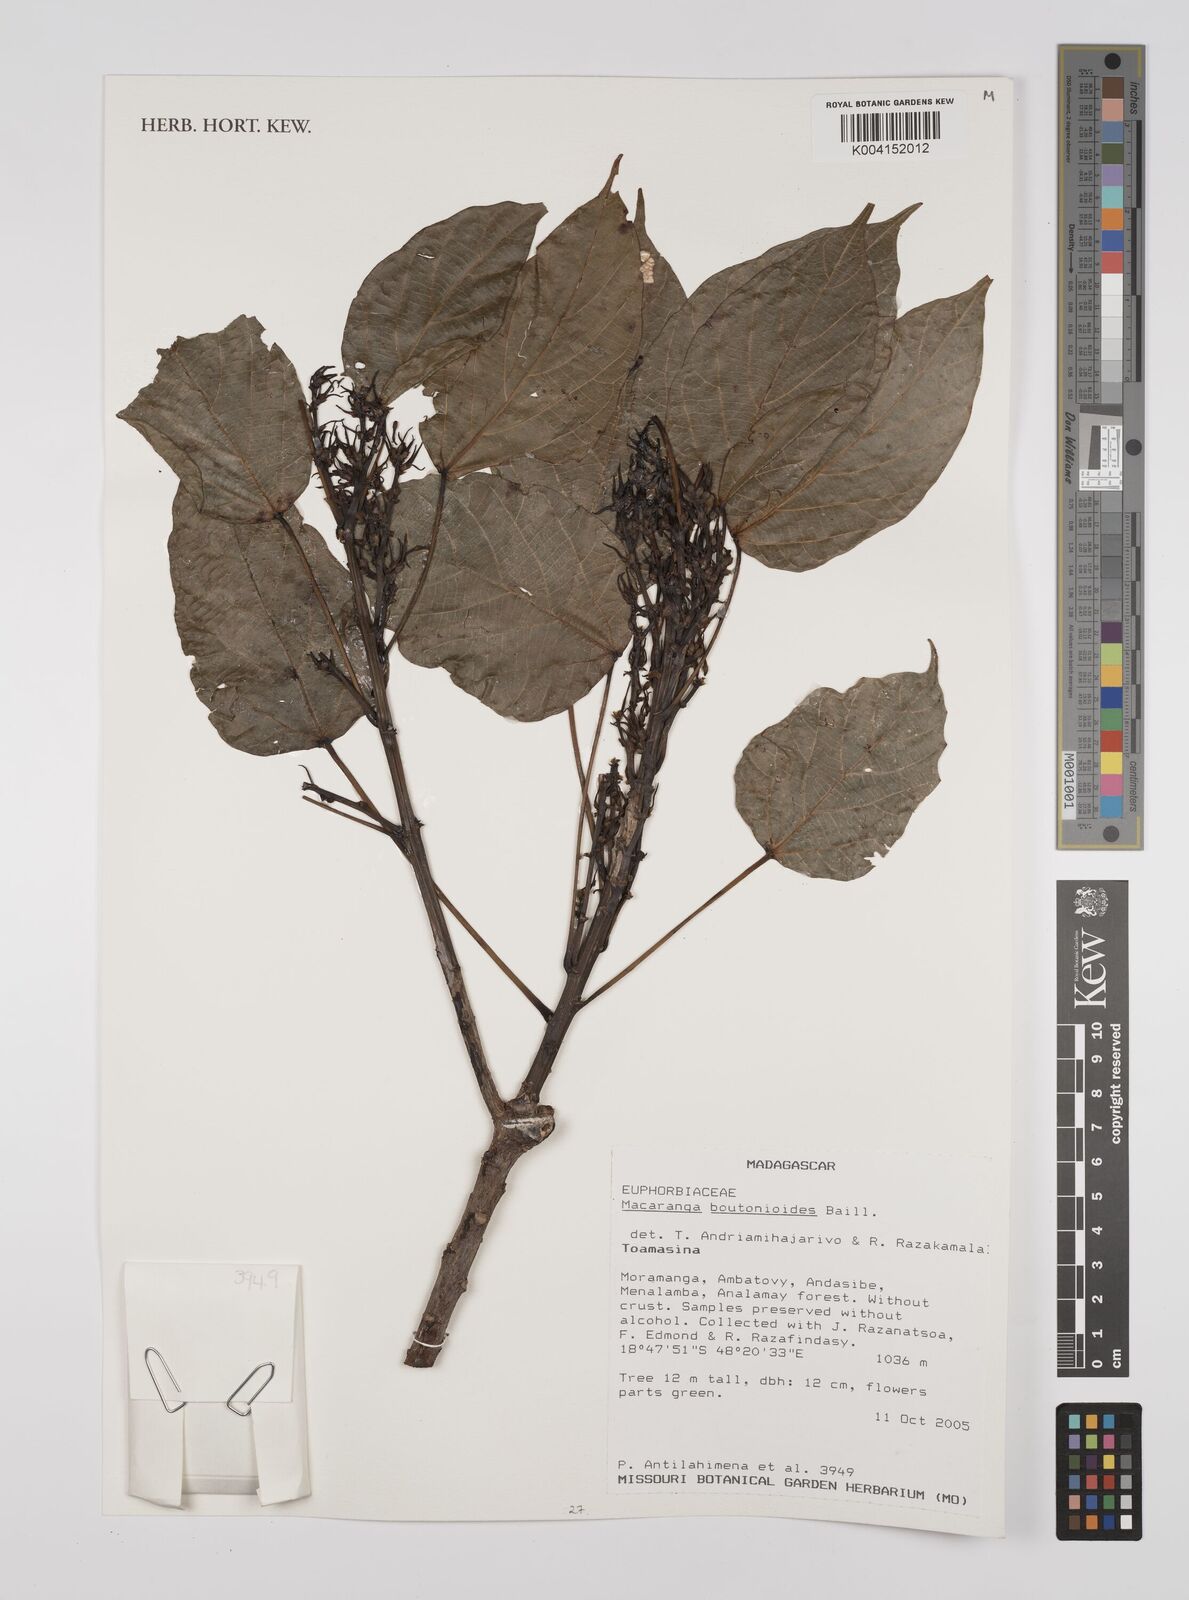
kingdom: Plantae
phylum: Tracheophyta
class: Magnoliopsida
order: Malpighiales
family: Euphorbiaceae
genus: Macaranga
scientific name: Macaranga boutonioides
